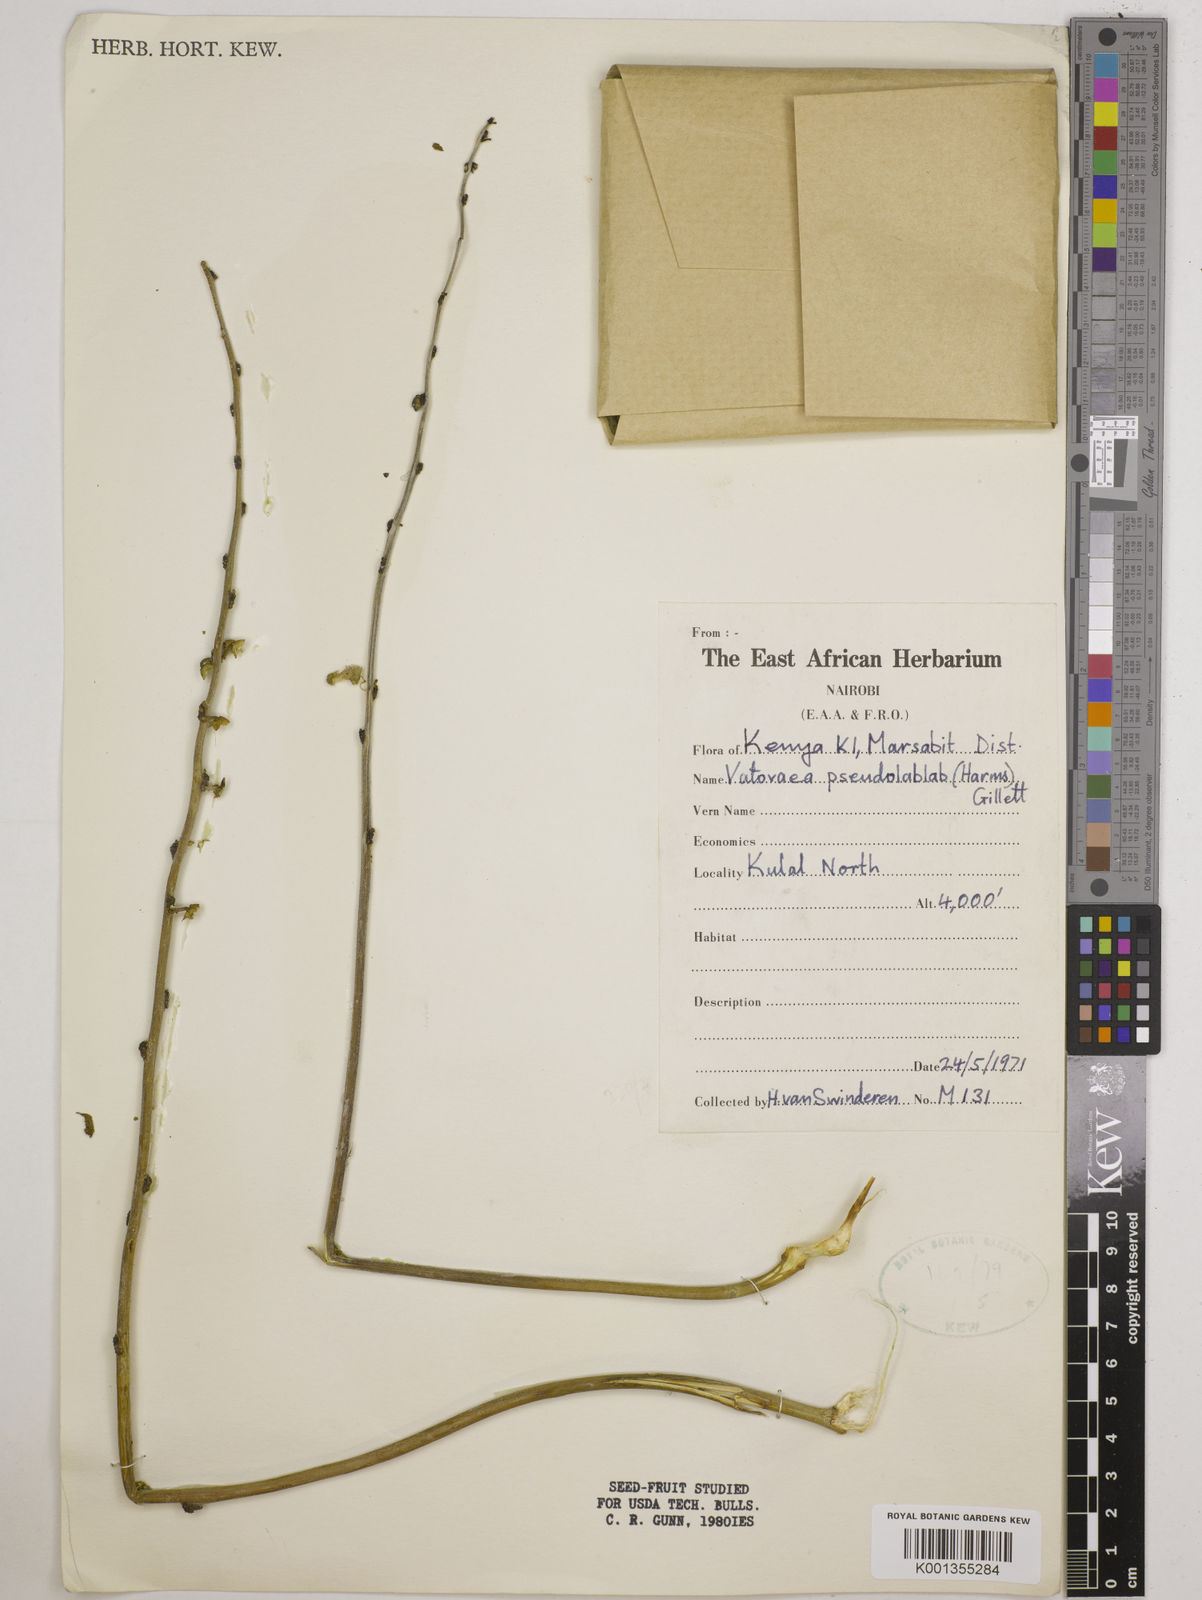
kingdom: Plantae
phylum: Tracheophyta
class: Magnoliopsida
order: Fabales
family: Fabaceae
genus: Vatovaea
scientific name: Vatovaea pseudolablab
